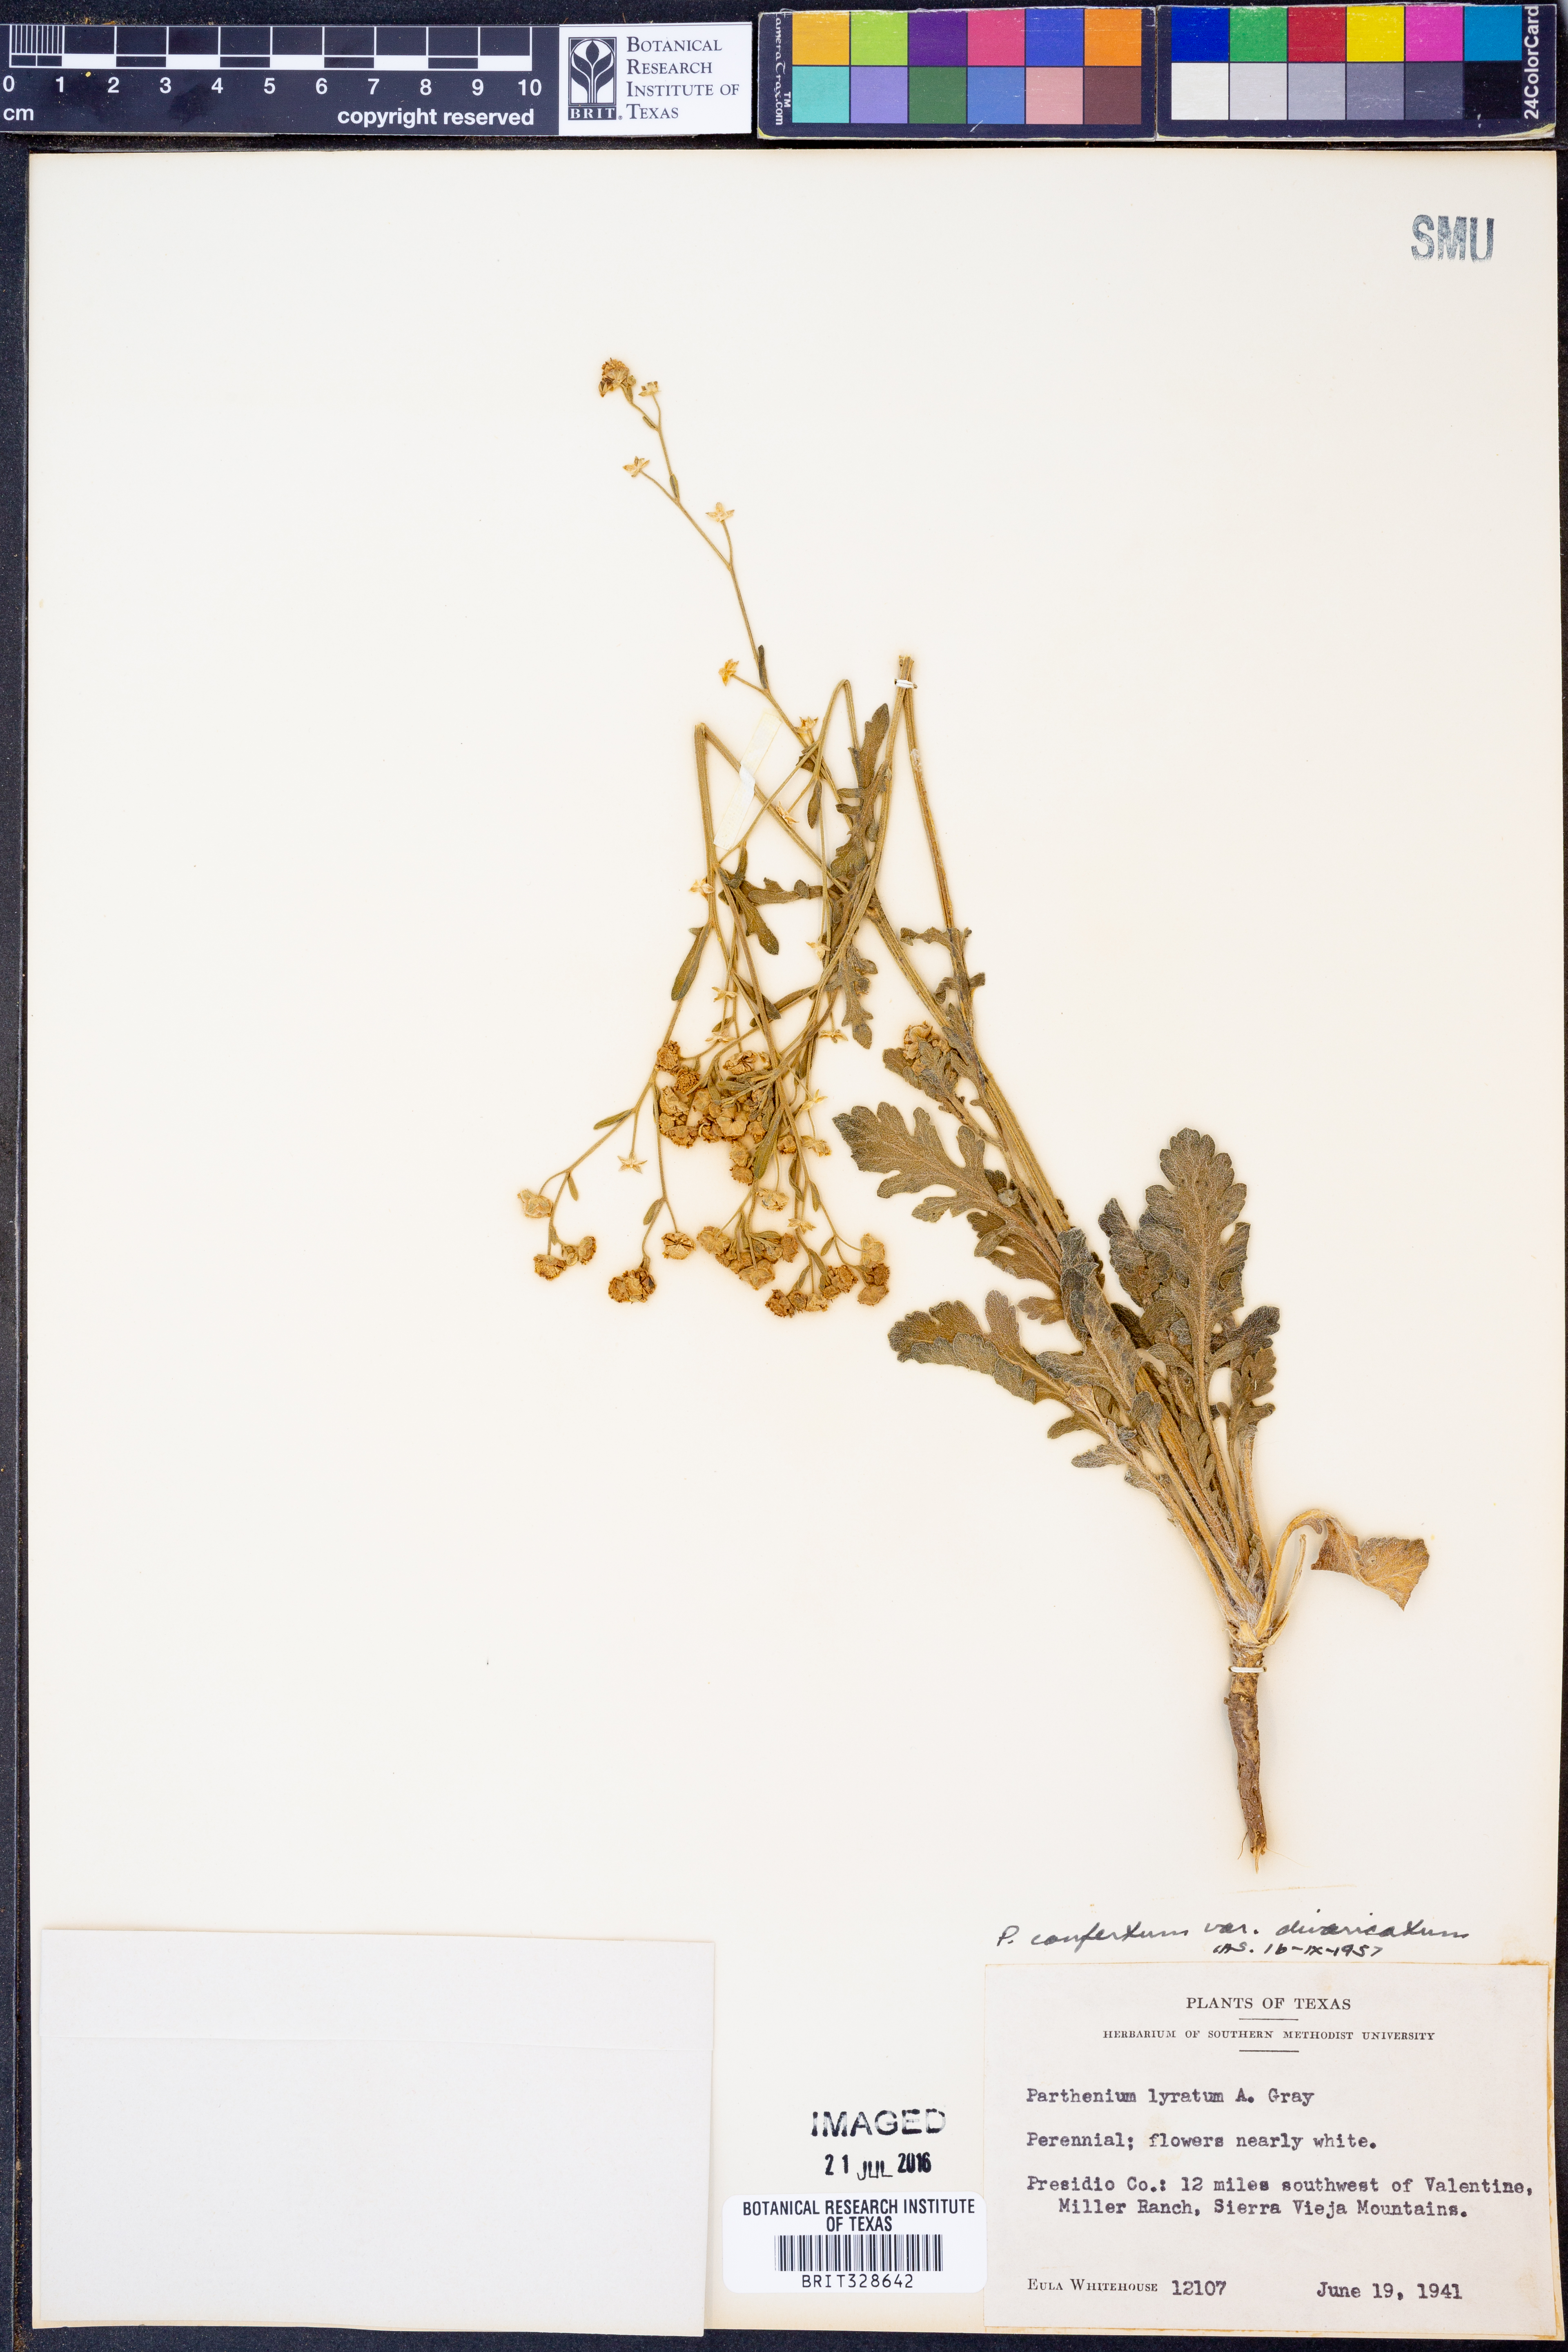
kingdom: Plantae
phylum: Tracheophyta
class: Magnoliopsida
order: Asterales
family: Asteraceae
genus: Parthenium
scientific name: Parthenium confertum
